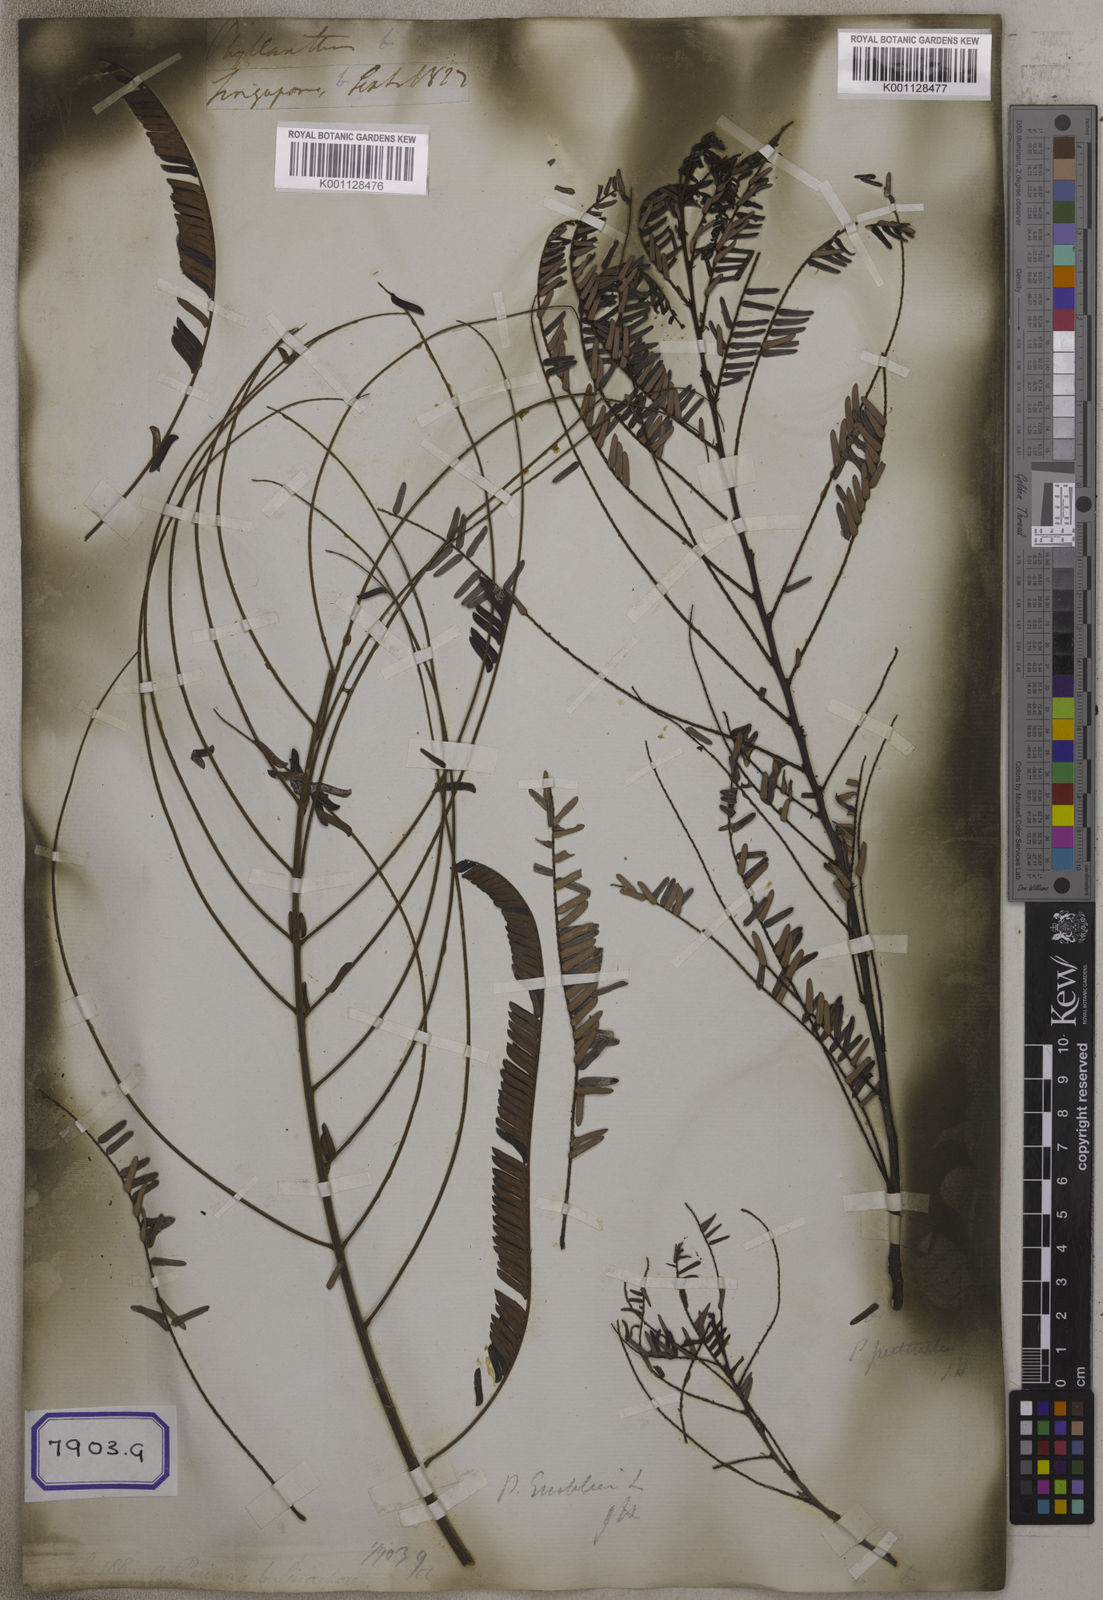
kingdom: Plantae
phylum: Tracheophyta
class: Magnoliopsida
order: Malpighiales
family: Euphorbiaceae
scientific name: Euphorbiaceae
